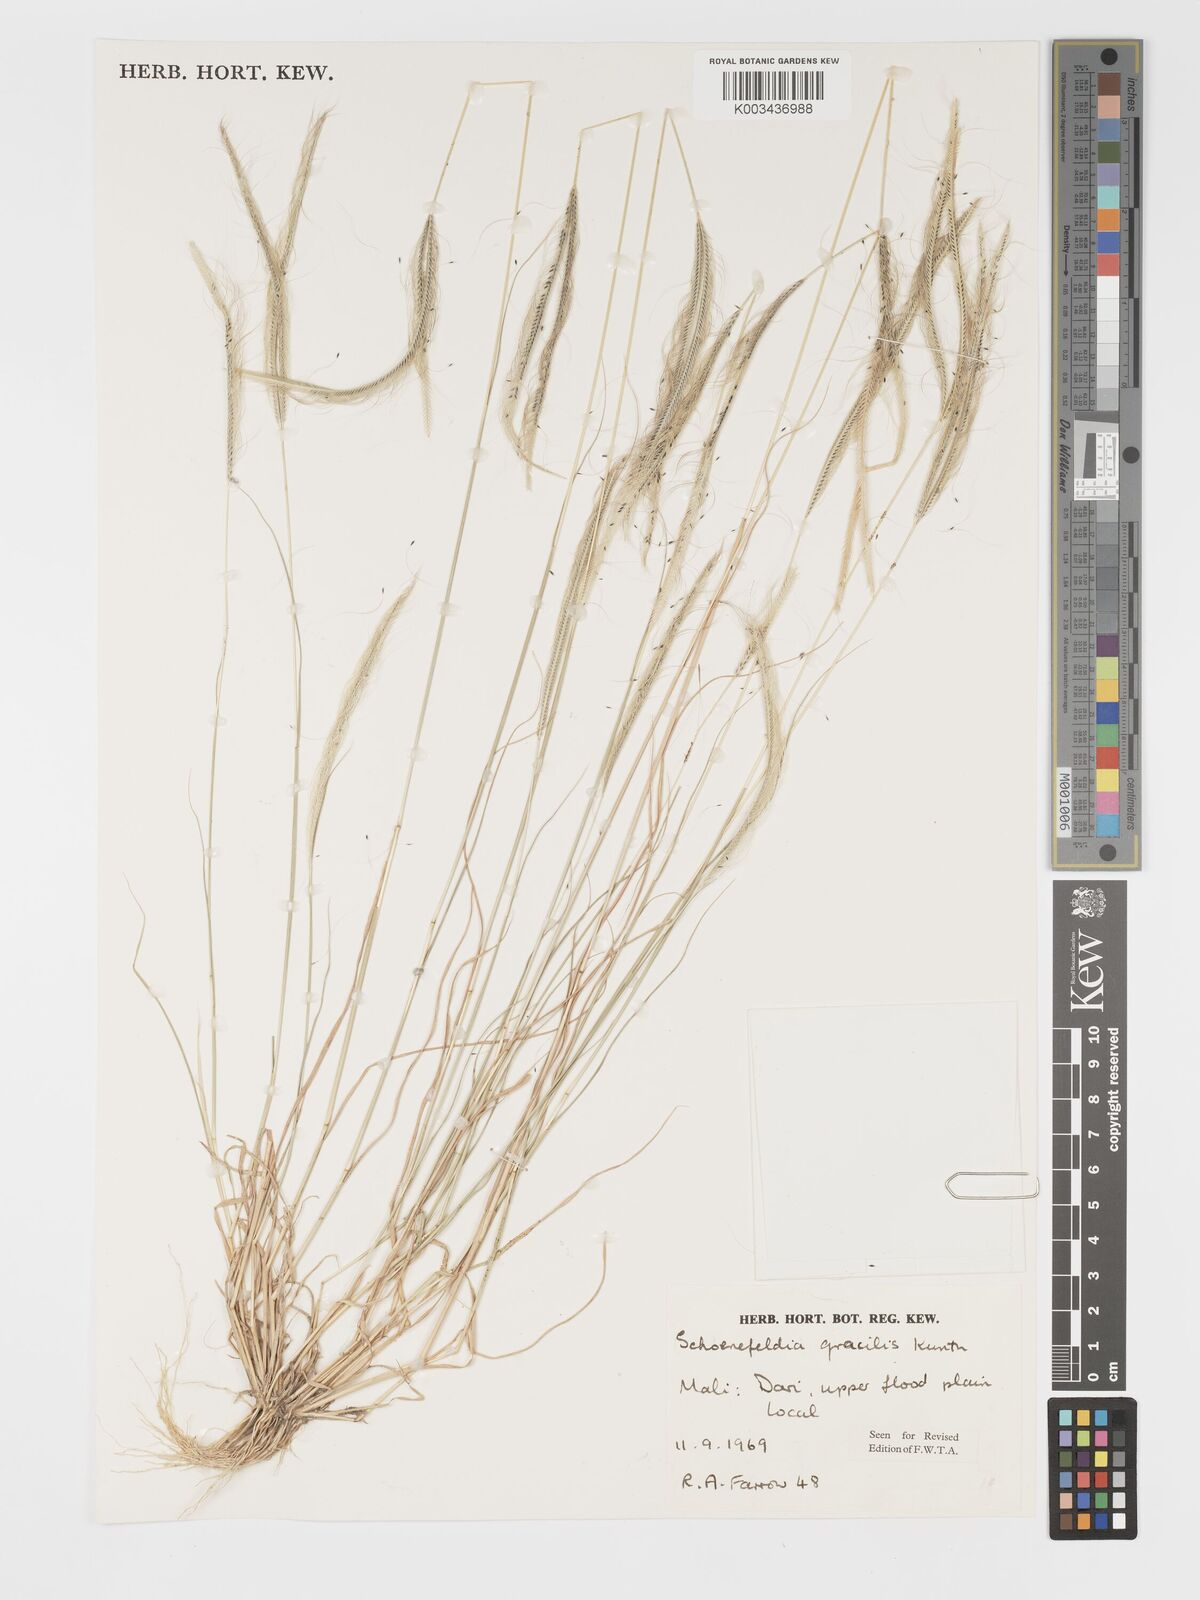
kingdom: Plantae
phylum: Tracheophyta
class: Liliopsida
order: Poales
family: Poaceae
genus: Schoenefeldia
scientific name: Schoenefeldia gracilis
